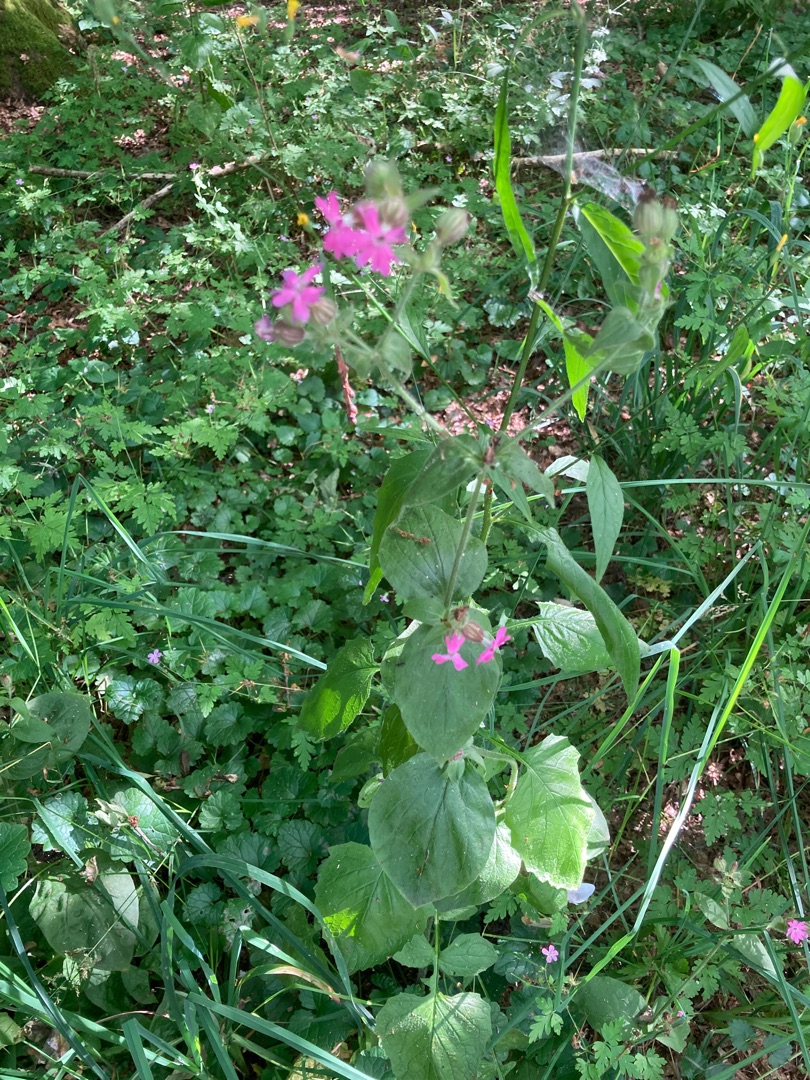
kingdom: Plantae
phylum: Tracheophyta
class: Magnoliopsida
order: Caryophyllales
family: Caryophyllaceae
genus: Silene
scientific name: Silene dioica
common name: Dagpragtstjerne
